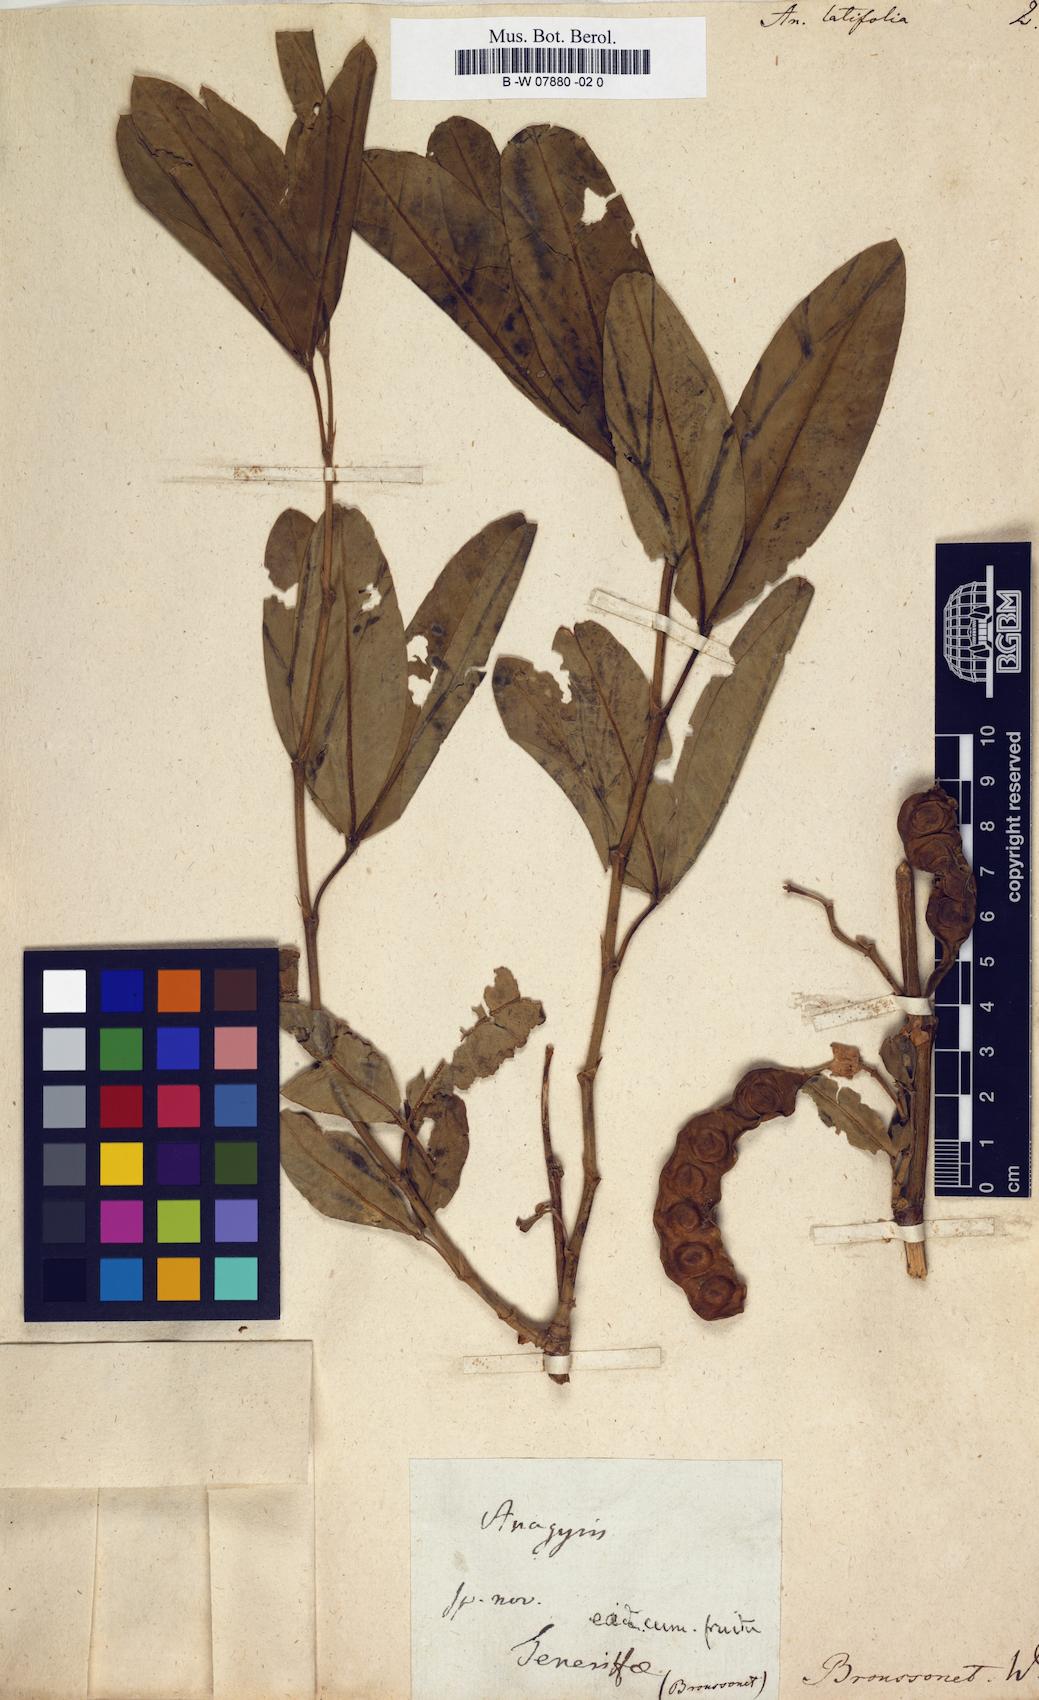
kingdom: Plantae
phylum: Tracheophyta
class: Magnoliopsida
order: Fabales
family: Fabaceae
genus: Anagyris
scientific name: Anagyris latifolia
